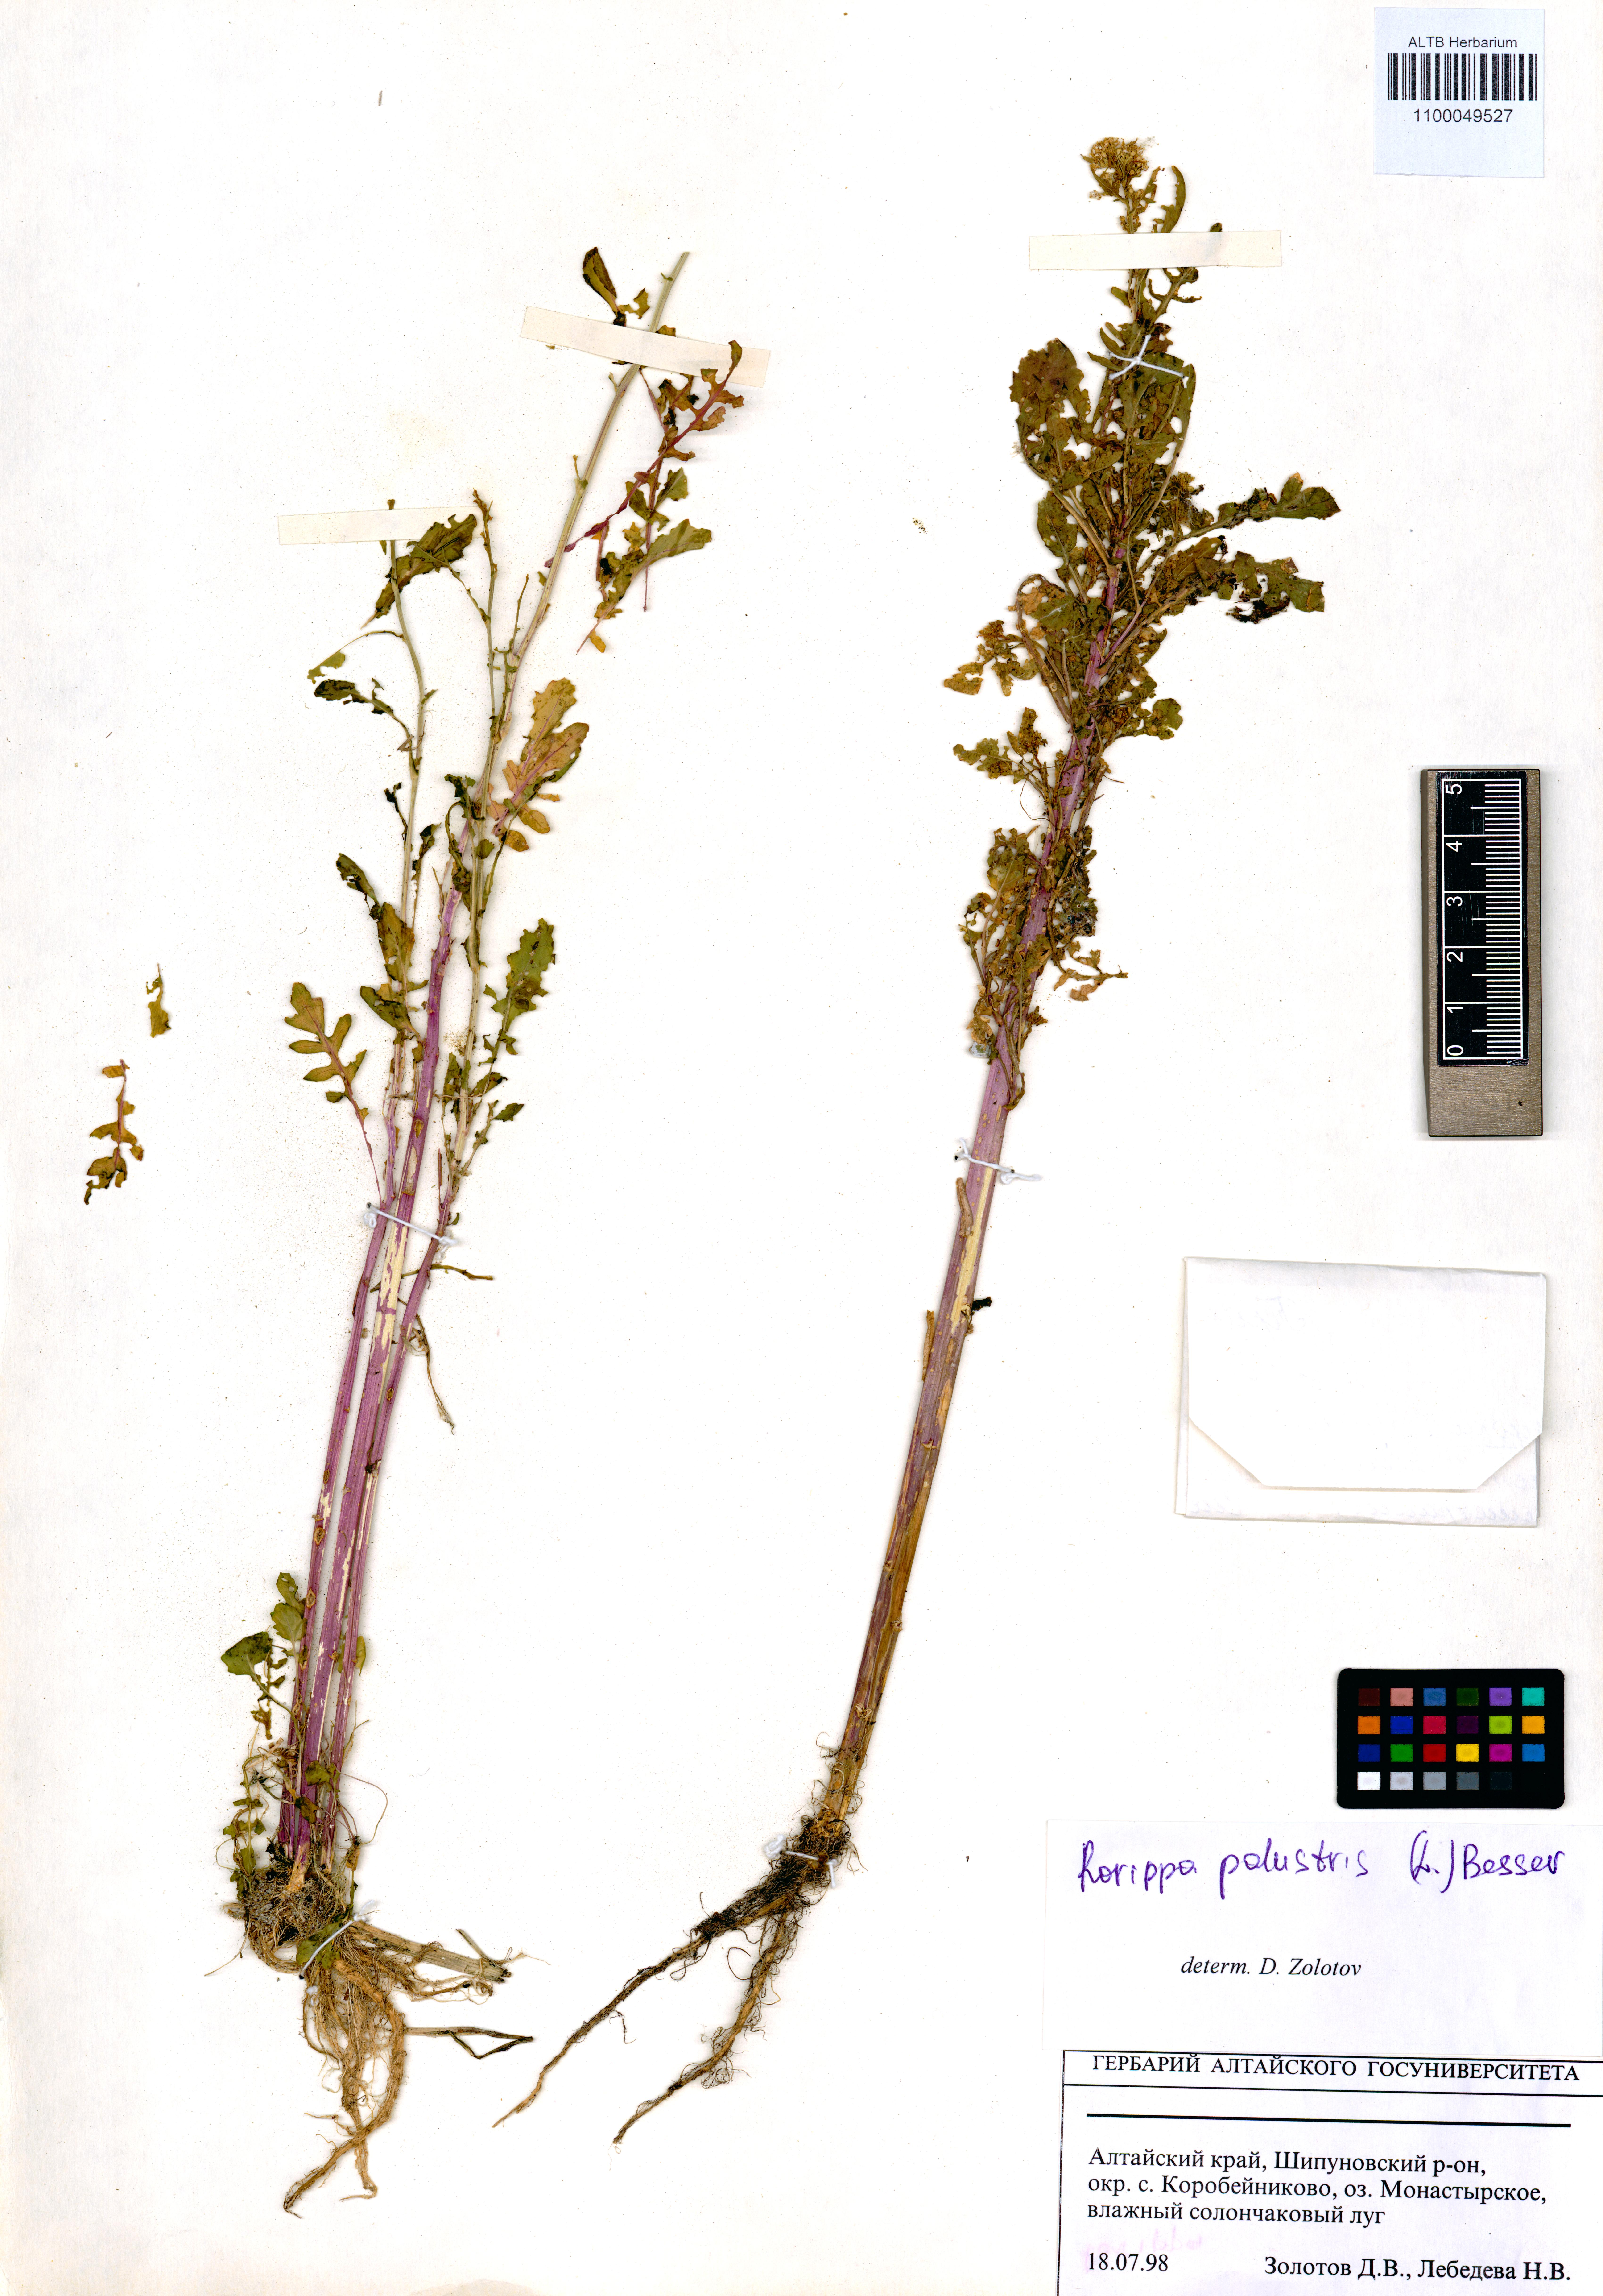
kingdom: Plantae
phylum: Tracheophyta
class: Magnoliopsida
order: Brassicales
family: Brassicaceae
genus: Rorippa
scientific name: Rorippa palustris
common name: Marsh yellow-cress
